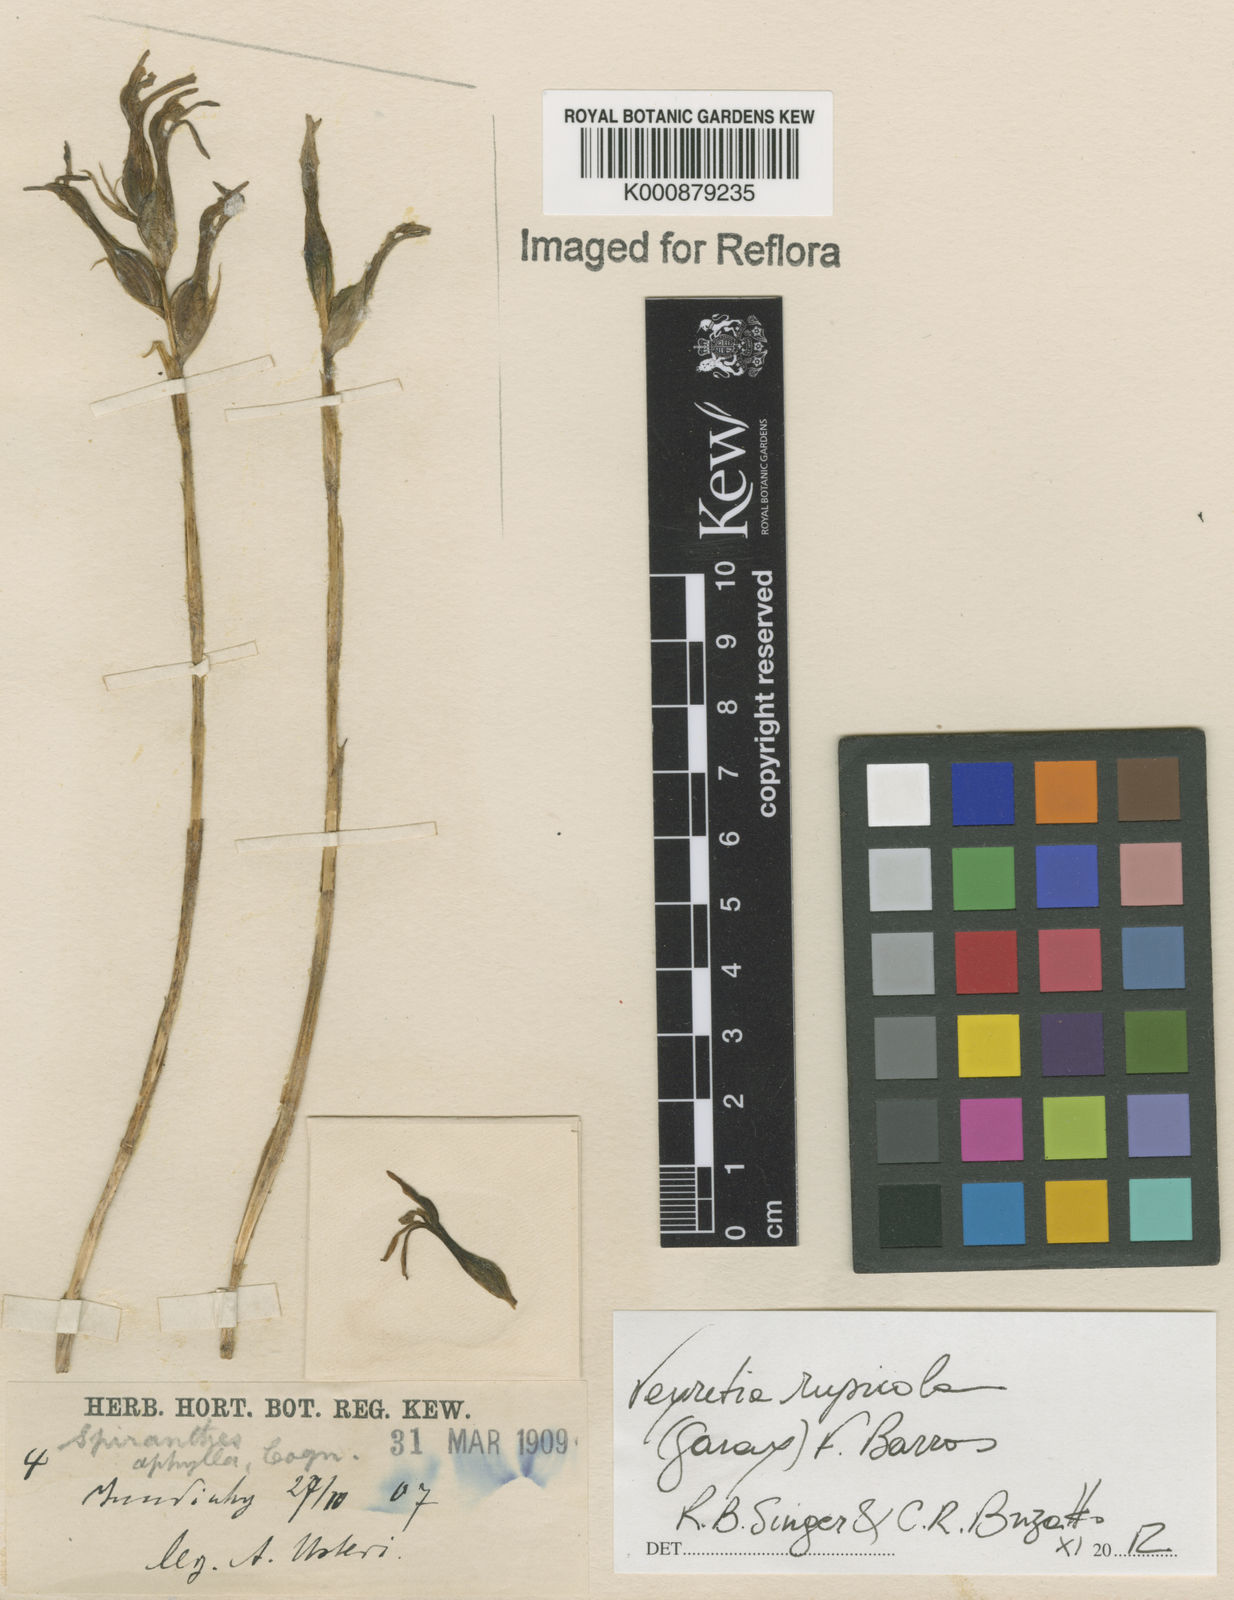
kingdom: Plantae
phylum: Tracheophyta
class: Liliopsida
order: Asparagales
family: Orchidaceae
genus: Veyretia
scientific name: Veyretia rupicola
